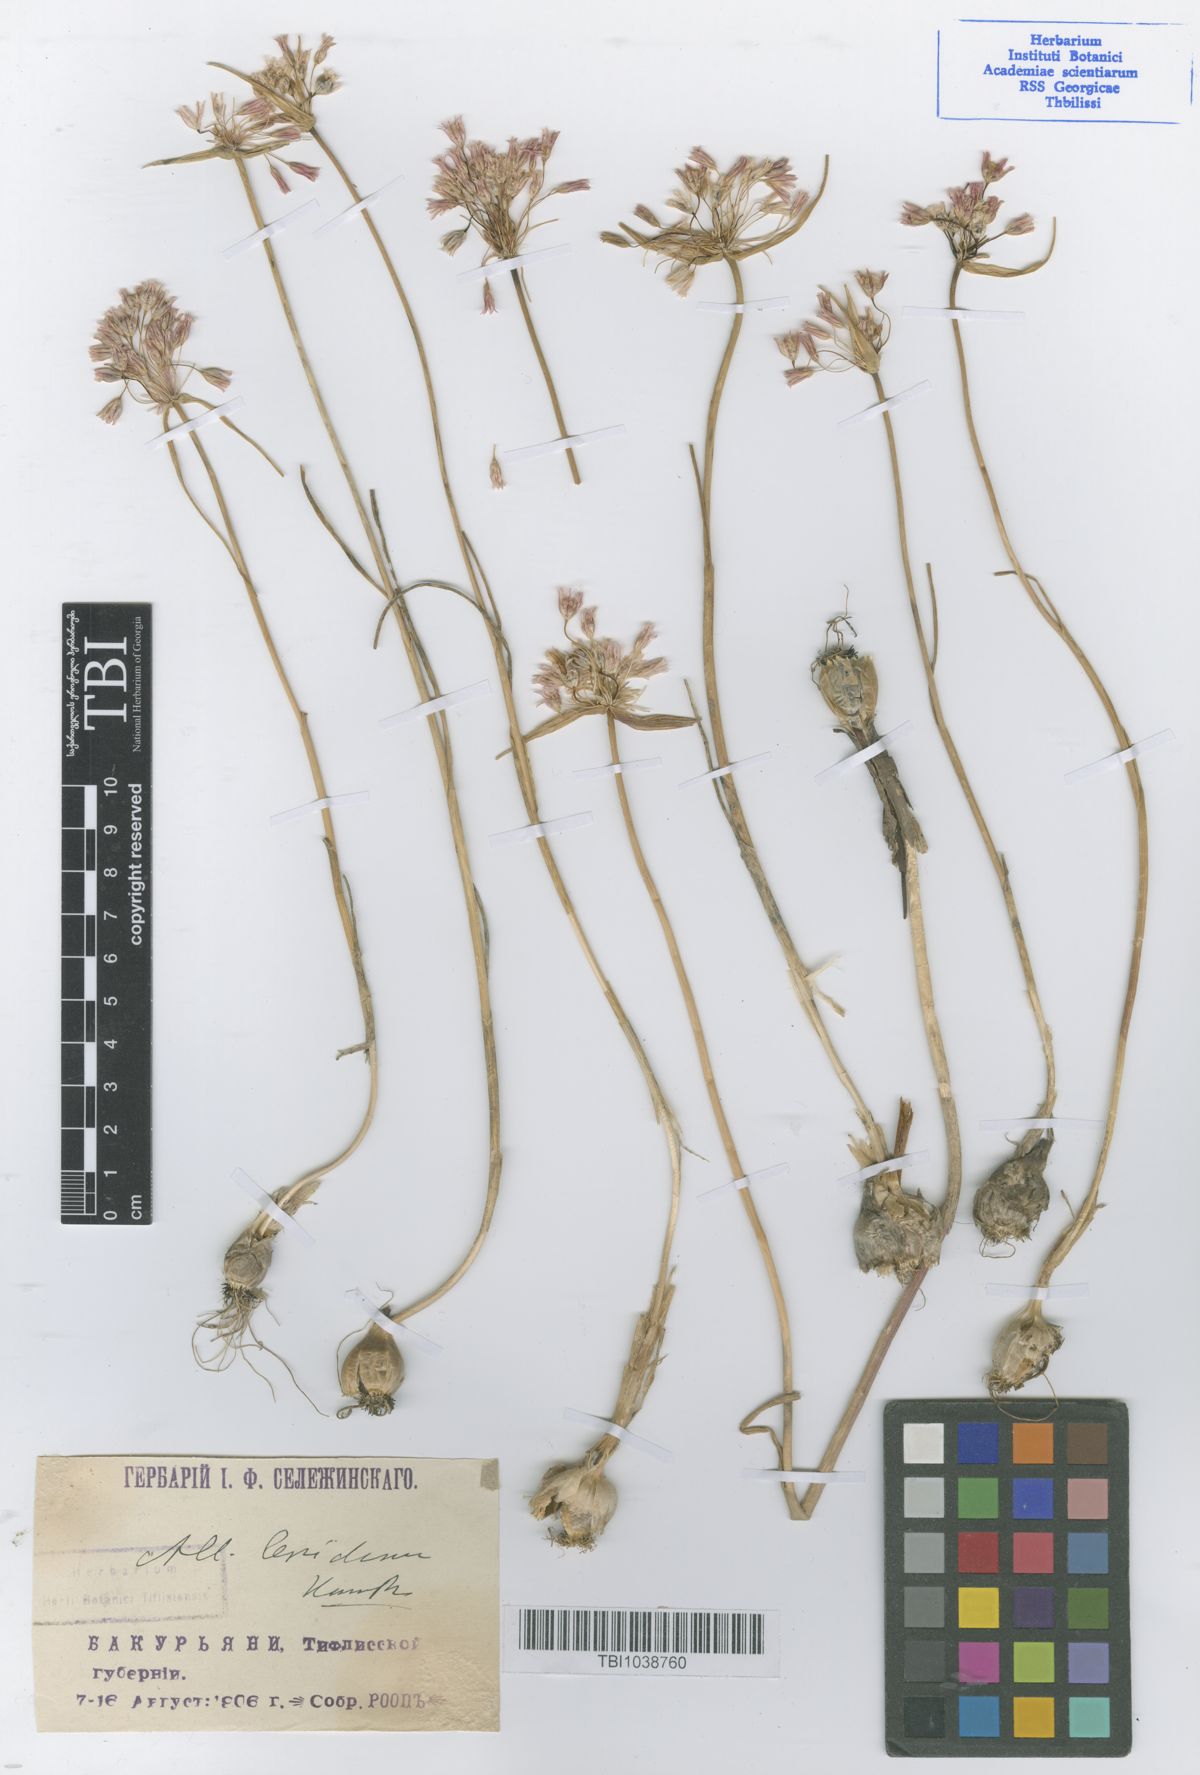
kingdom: Plantae
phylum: Tracheophyta
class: Liliopsida
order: Asparagales
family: Amaryllidaceae
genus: Allium
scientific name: Allium kunthianum
